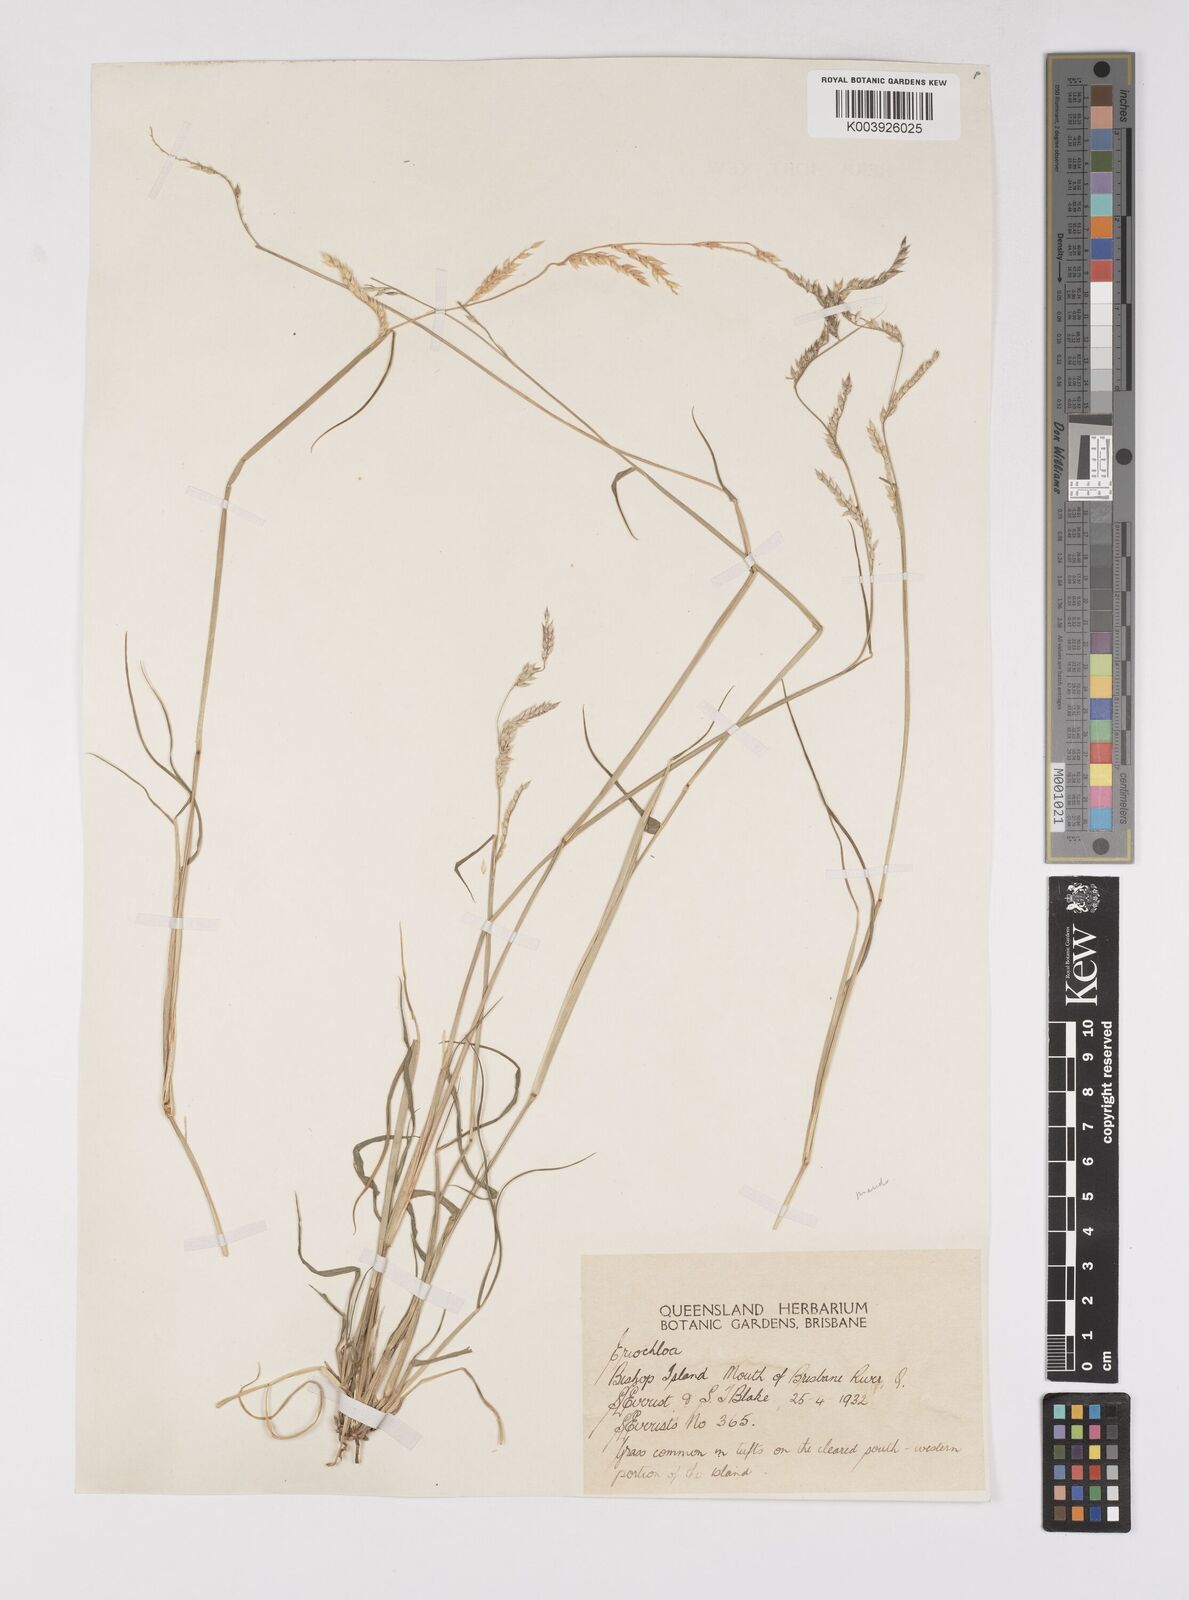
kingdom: Plantae
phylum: Tracheophyta
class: Liliopsida
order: Poales
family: Poaceae
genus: Eriochloa
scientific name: Eriochloa
